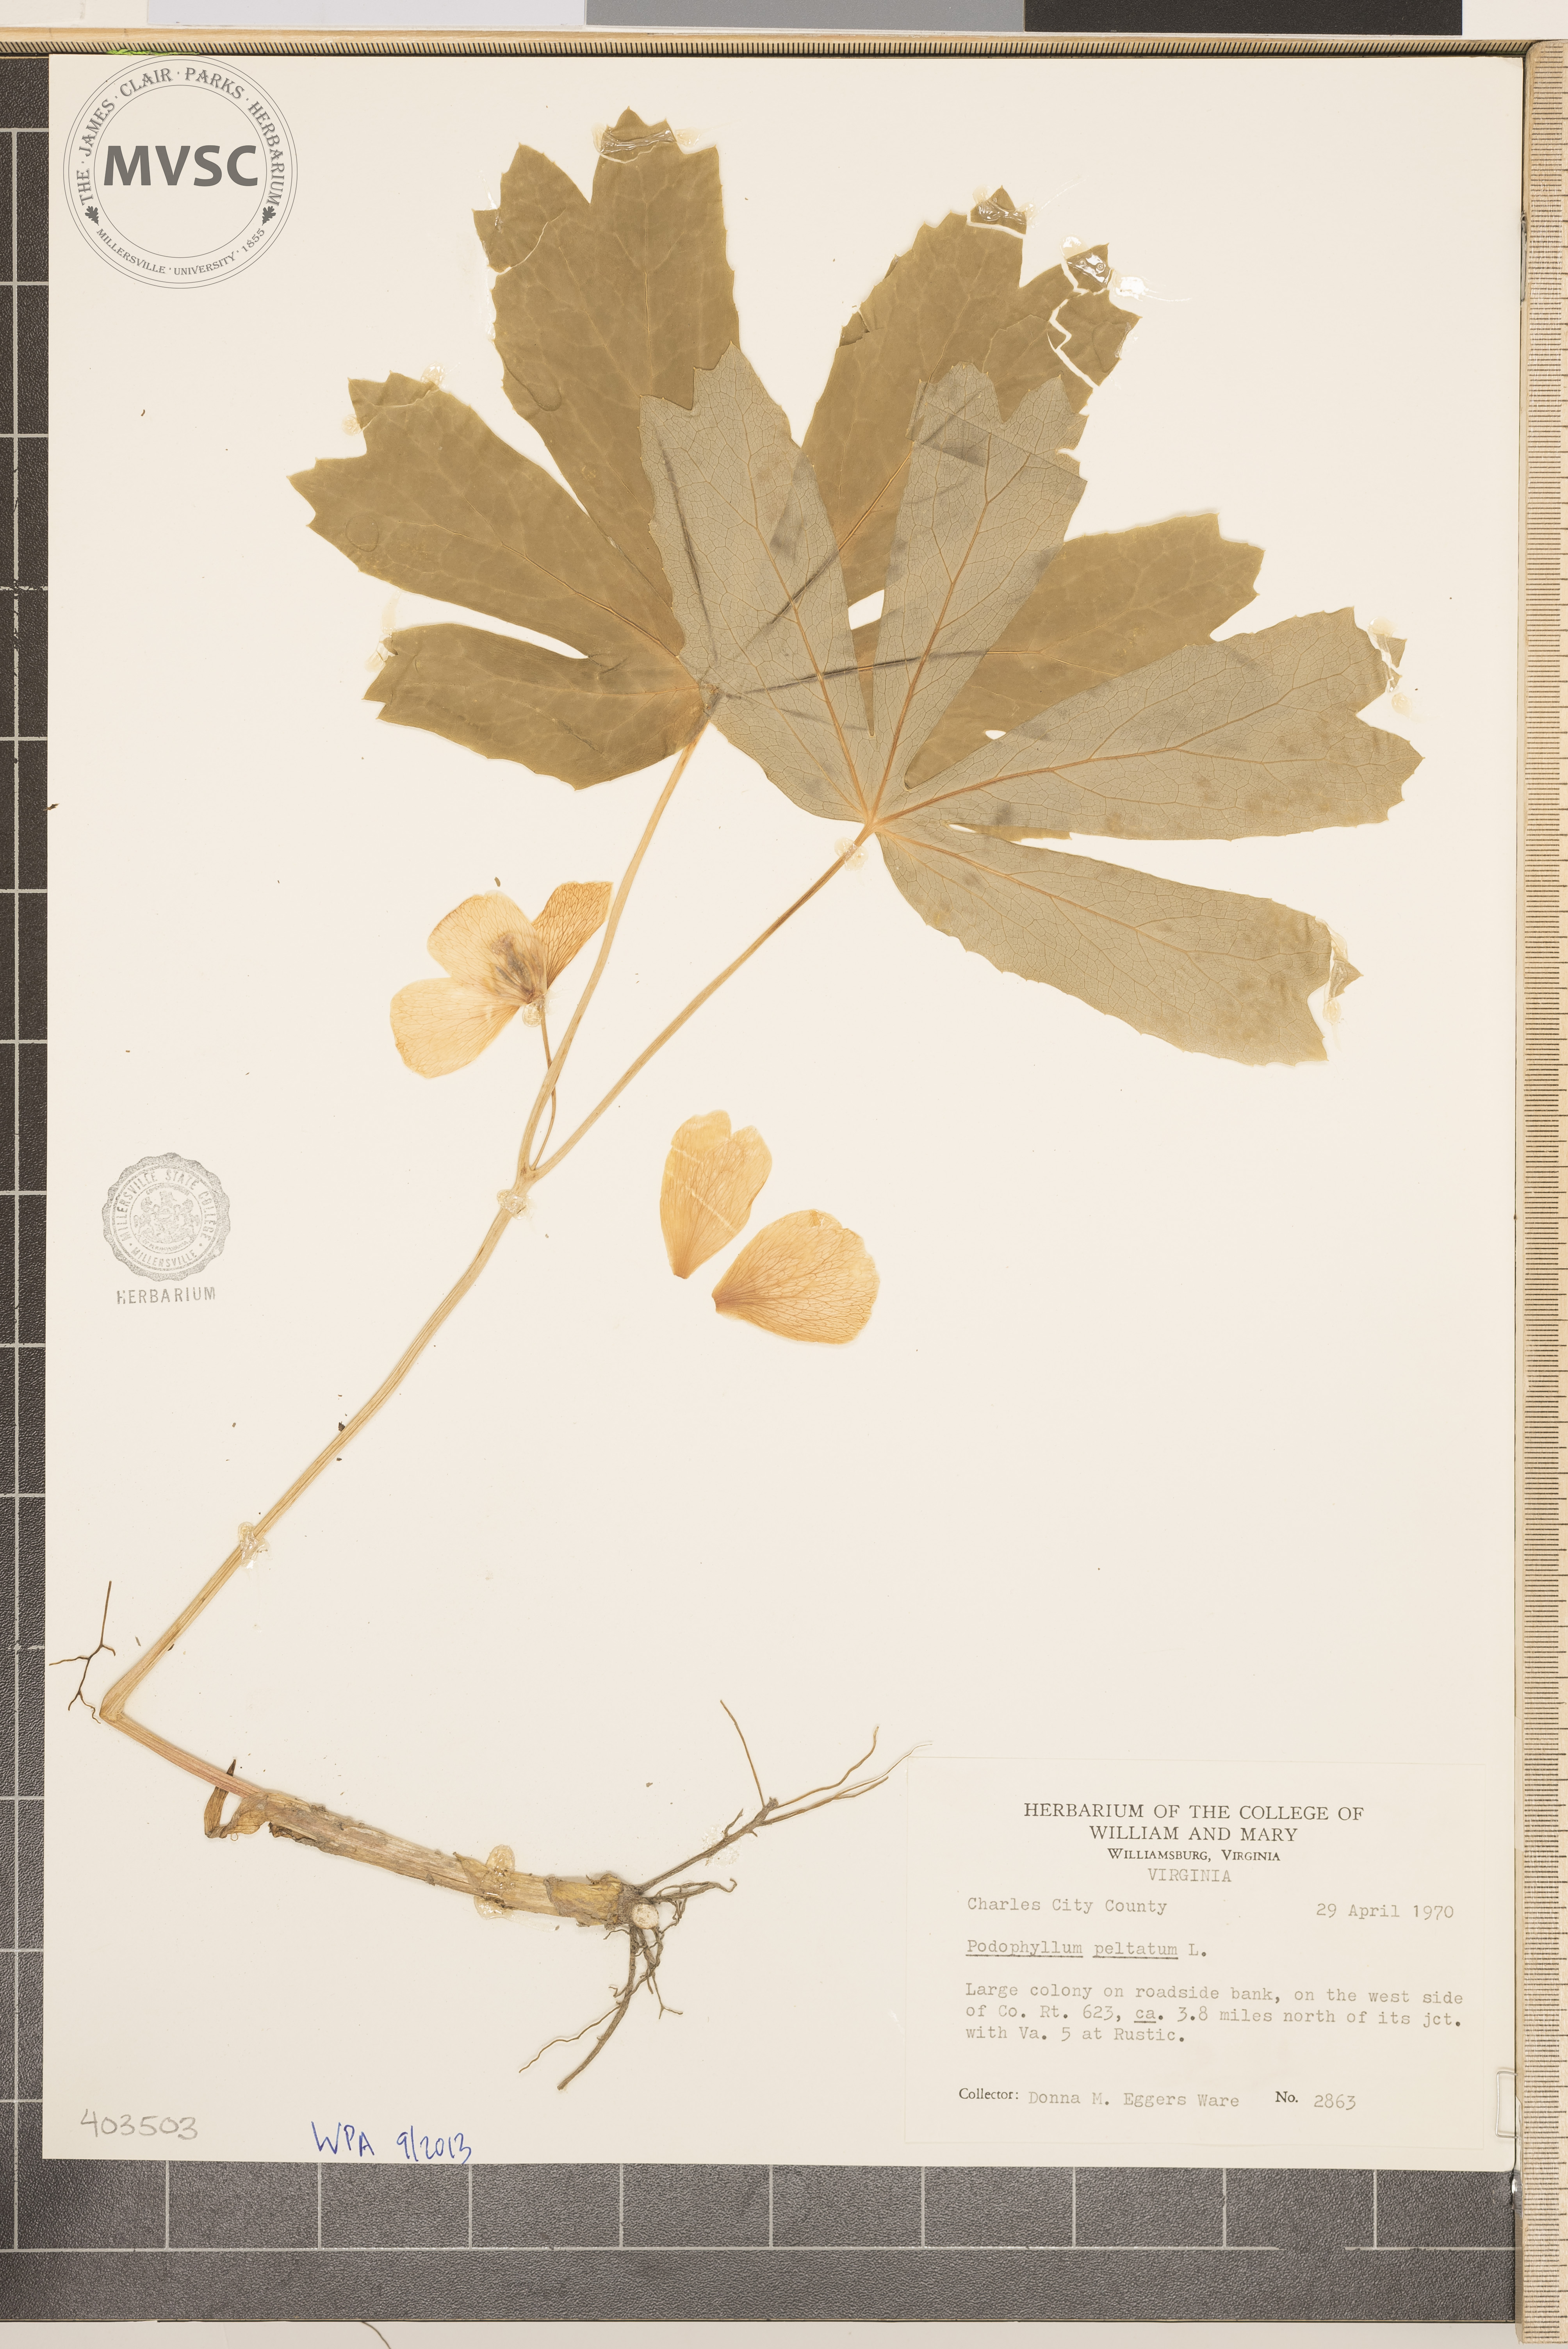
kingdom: Plantae
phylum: Tracheophyta
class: Magnoliopsida
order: Ranunculales
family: Berberidaceae
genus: Podophyllum
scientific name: Podophyllum peltatum
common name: May-Apple
